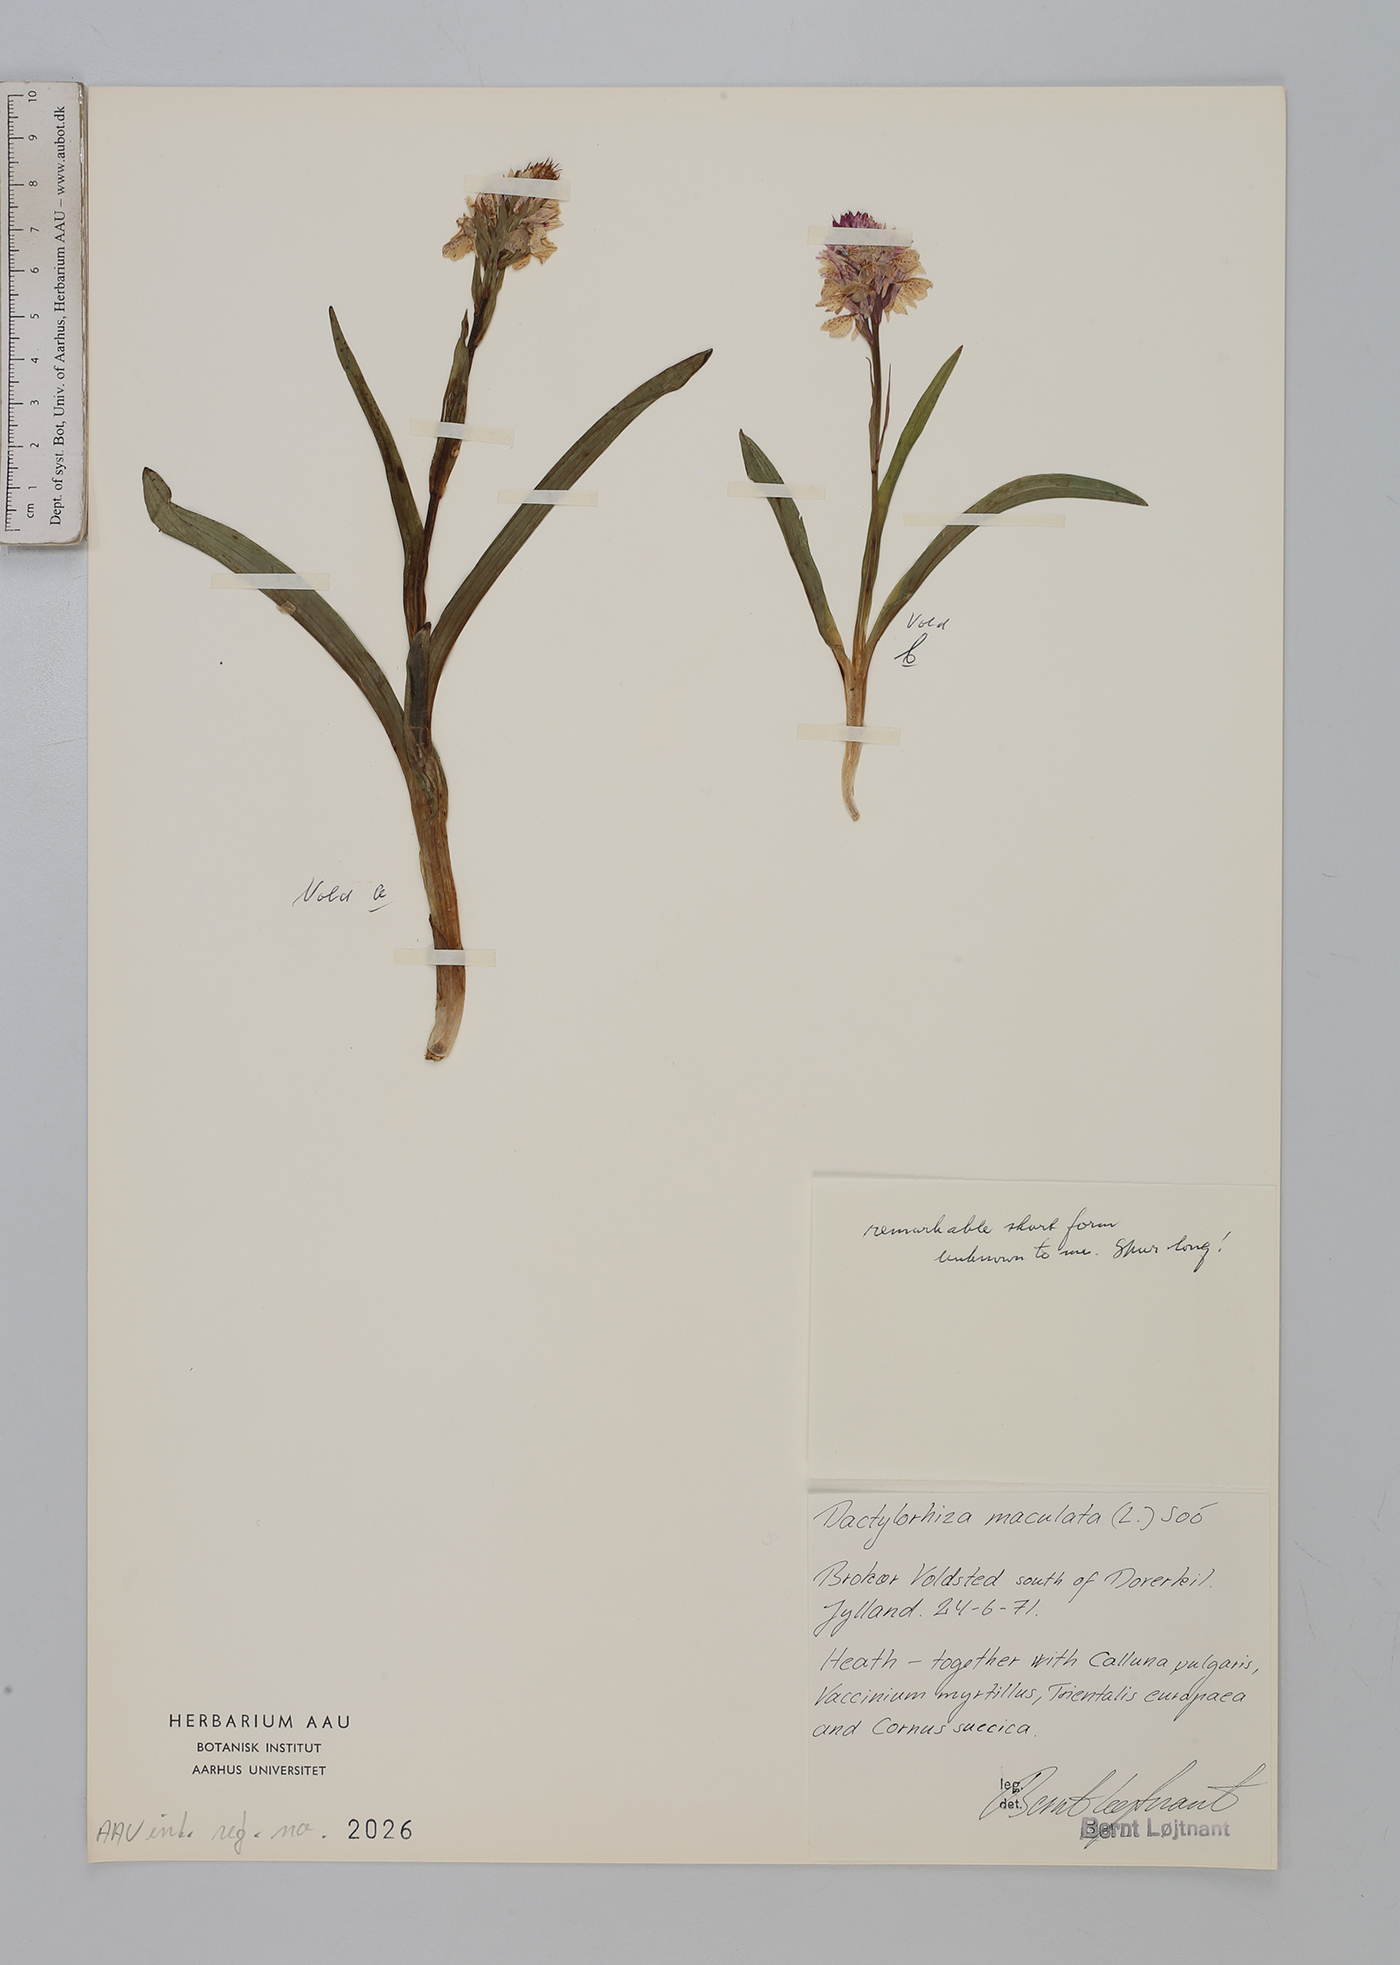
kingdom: Plantae
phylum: Tracheophyta
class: Liliopsida
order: Asparagales
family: Orchidaceae
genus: Dactylorhiza
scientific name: Dactylorhiza maculata
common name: Heath spotted-orchid
